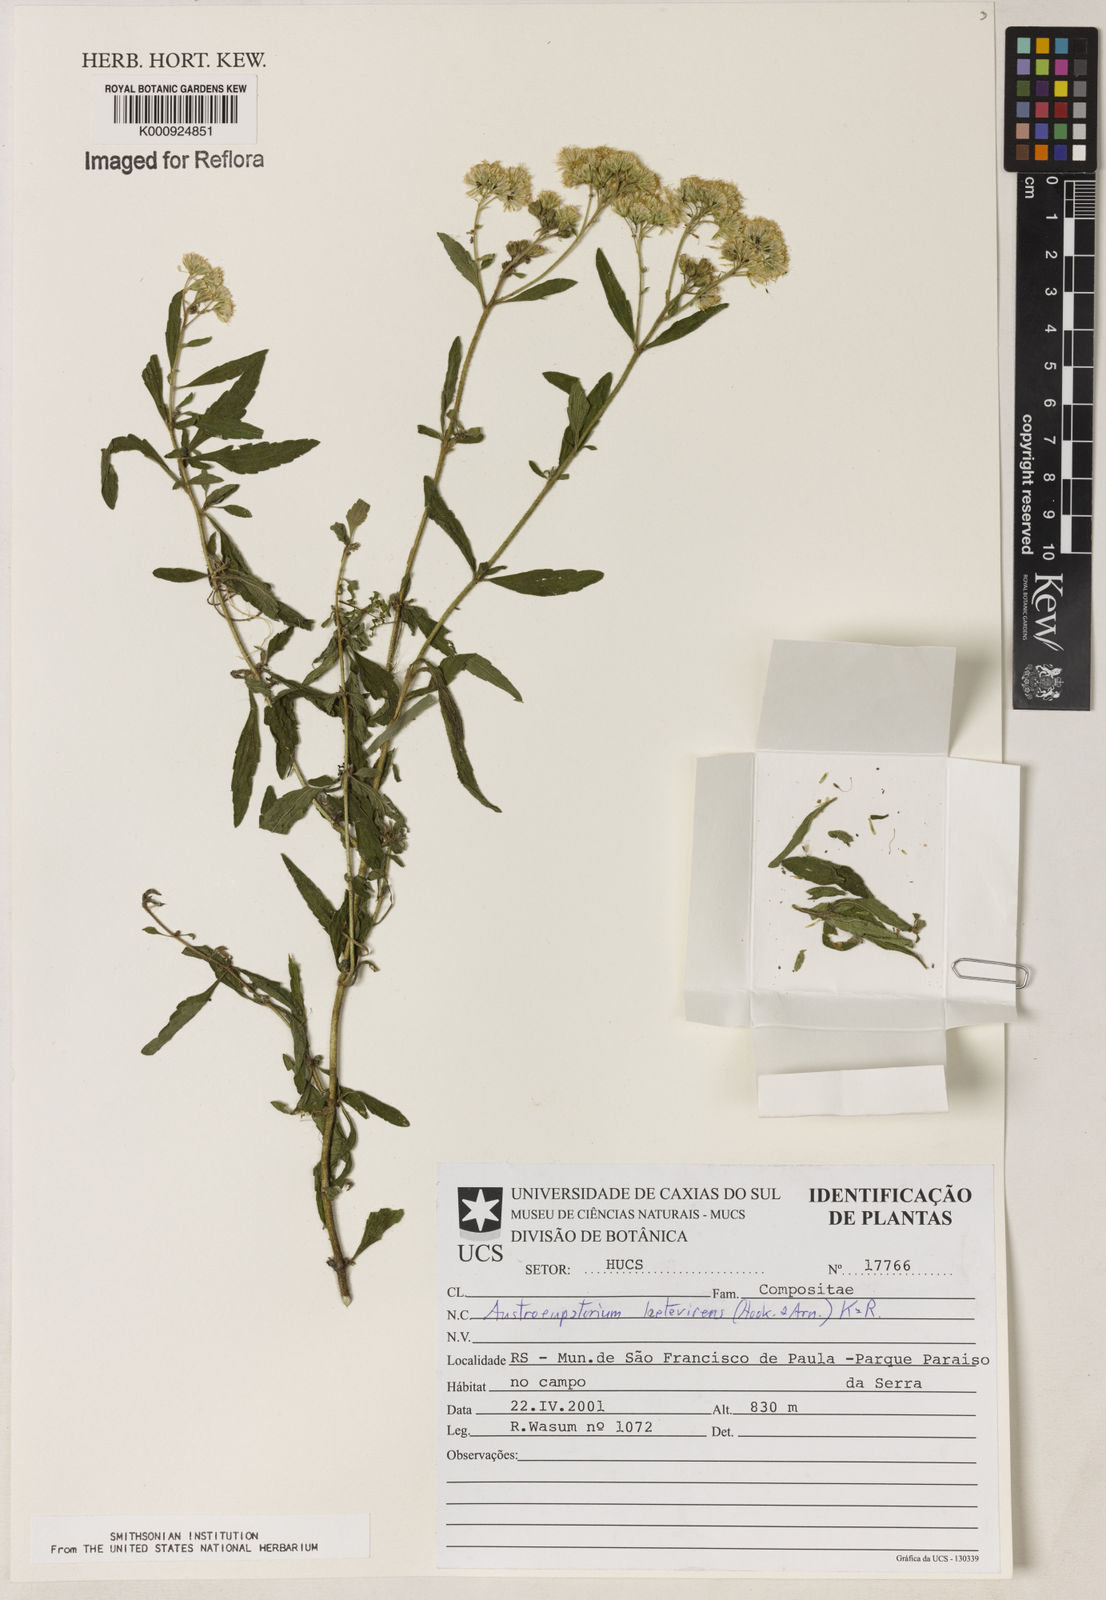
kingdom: Plantae
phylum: Tracheophyta
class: Magnoliopsida
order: Asterales
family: Asteraceae
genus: Austroeupatorium
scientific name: Austroeupatorium laetevirens
